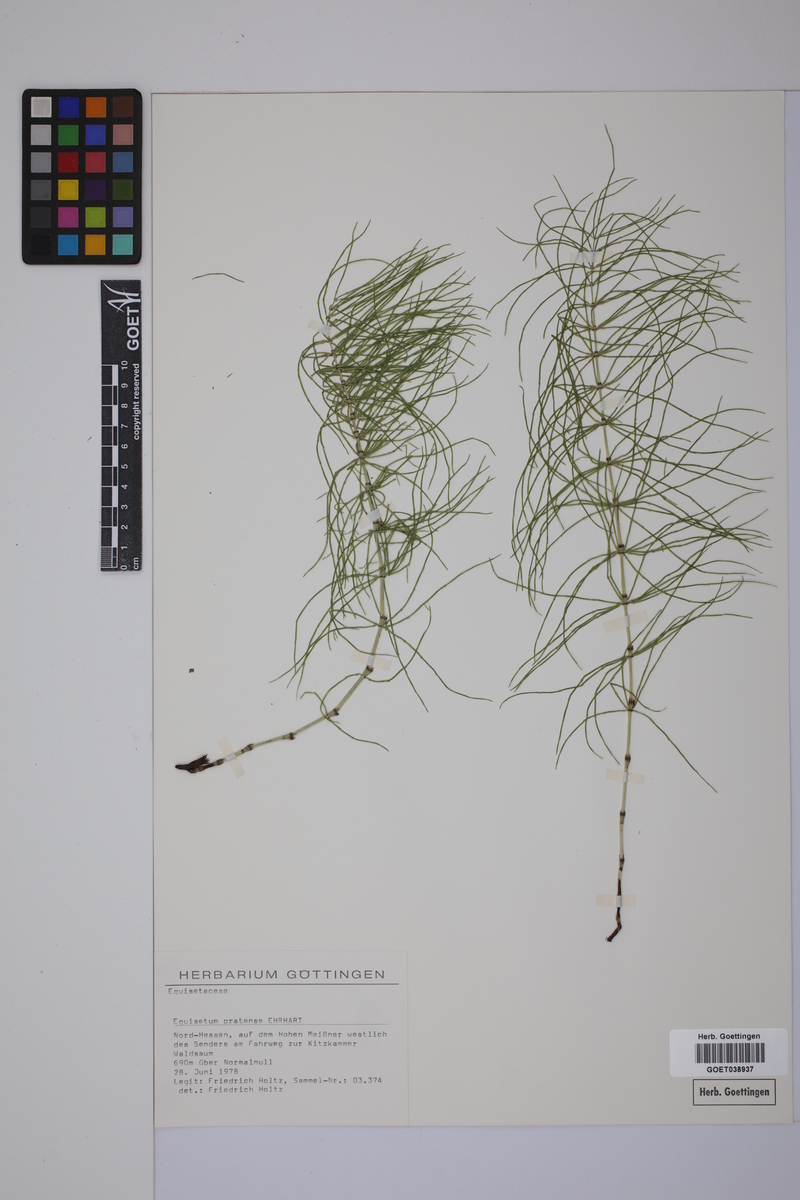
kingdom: Plantae
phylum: Tracheophyta
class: Polypodiopsida
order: Equisetales
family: Equisetaceae
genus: Equisetum
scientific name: Equisetum pratense
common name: Meadow horsetail
